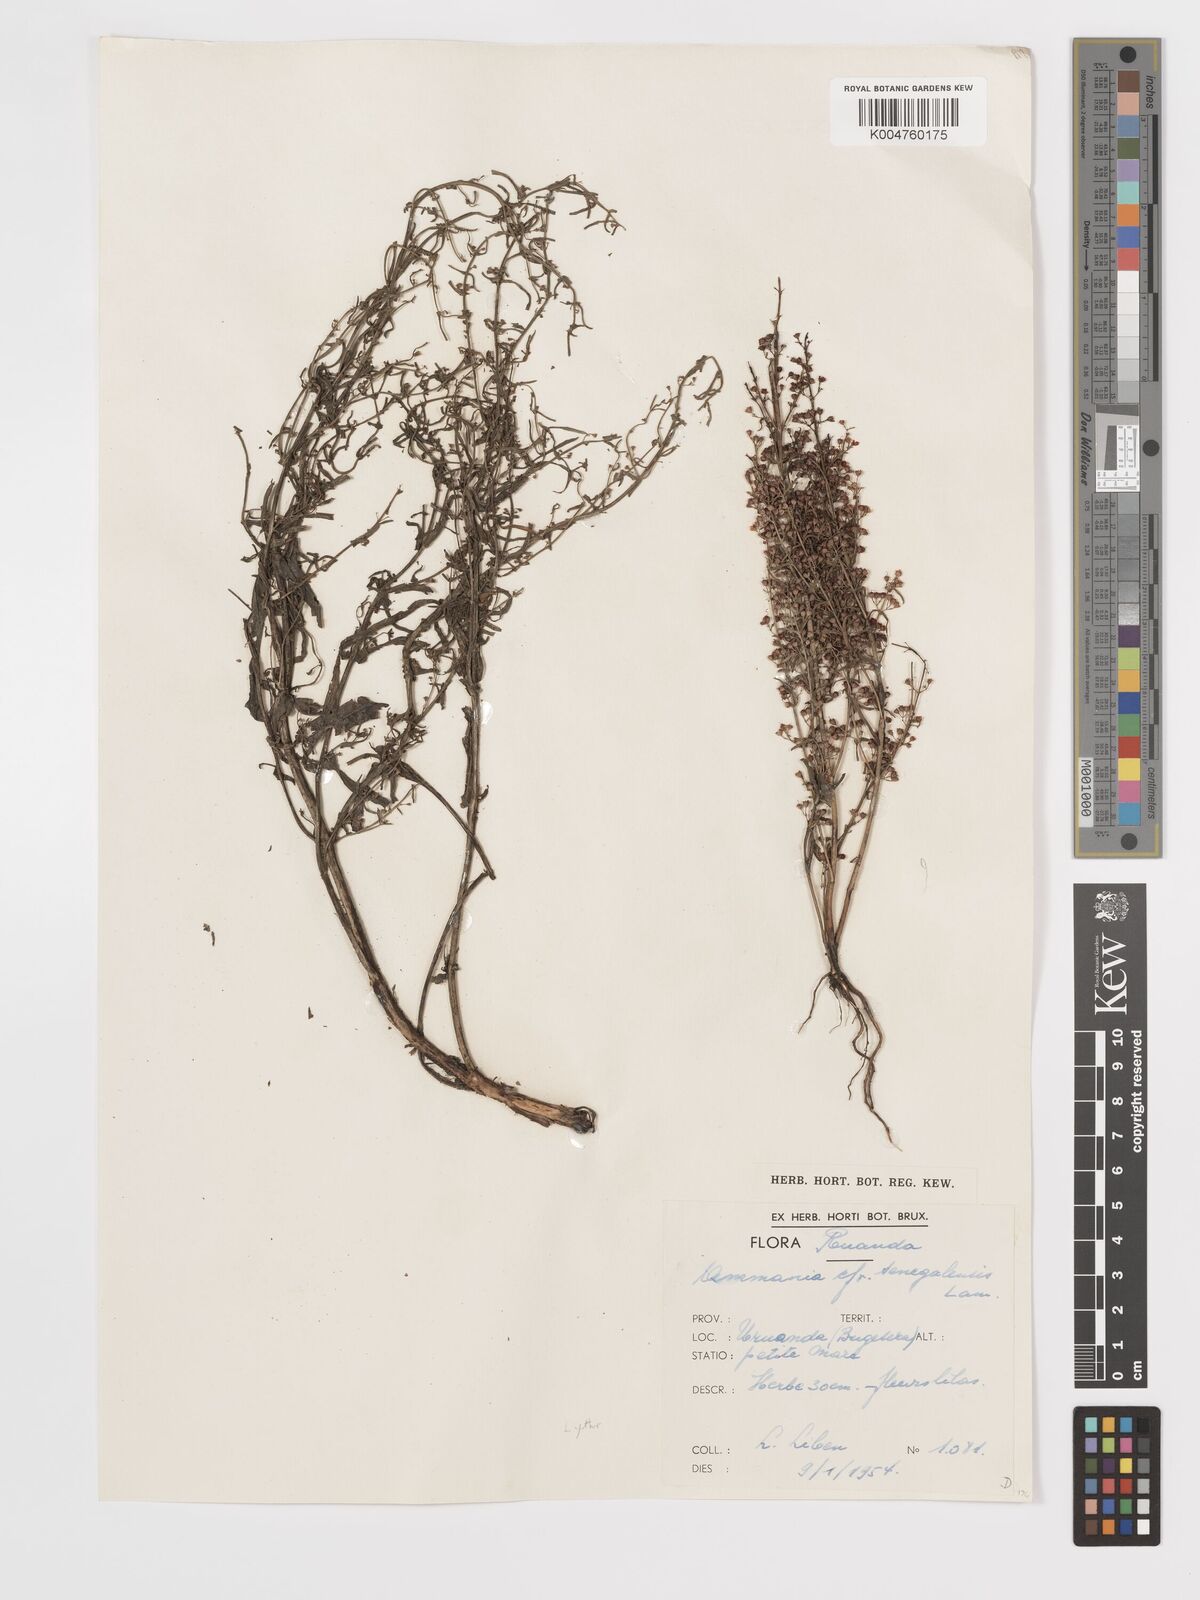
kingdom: Plantae
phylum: Tracheophyta
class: Magnoliopsida
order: Myrtales
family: Lythraceae
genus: Ammannia
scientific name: Ammannia auriculata
